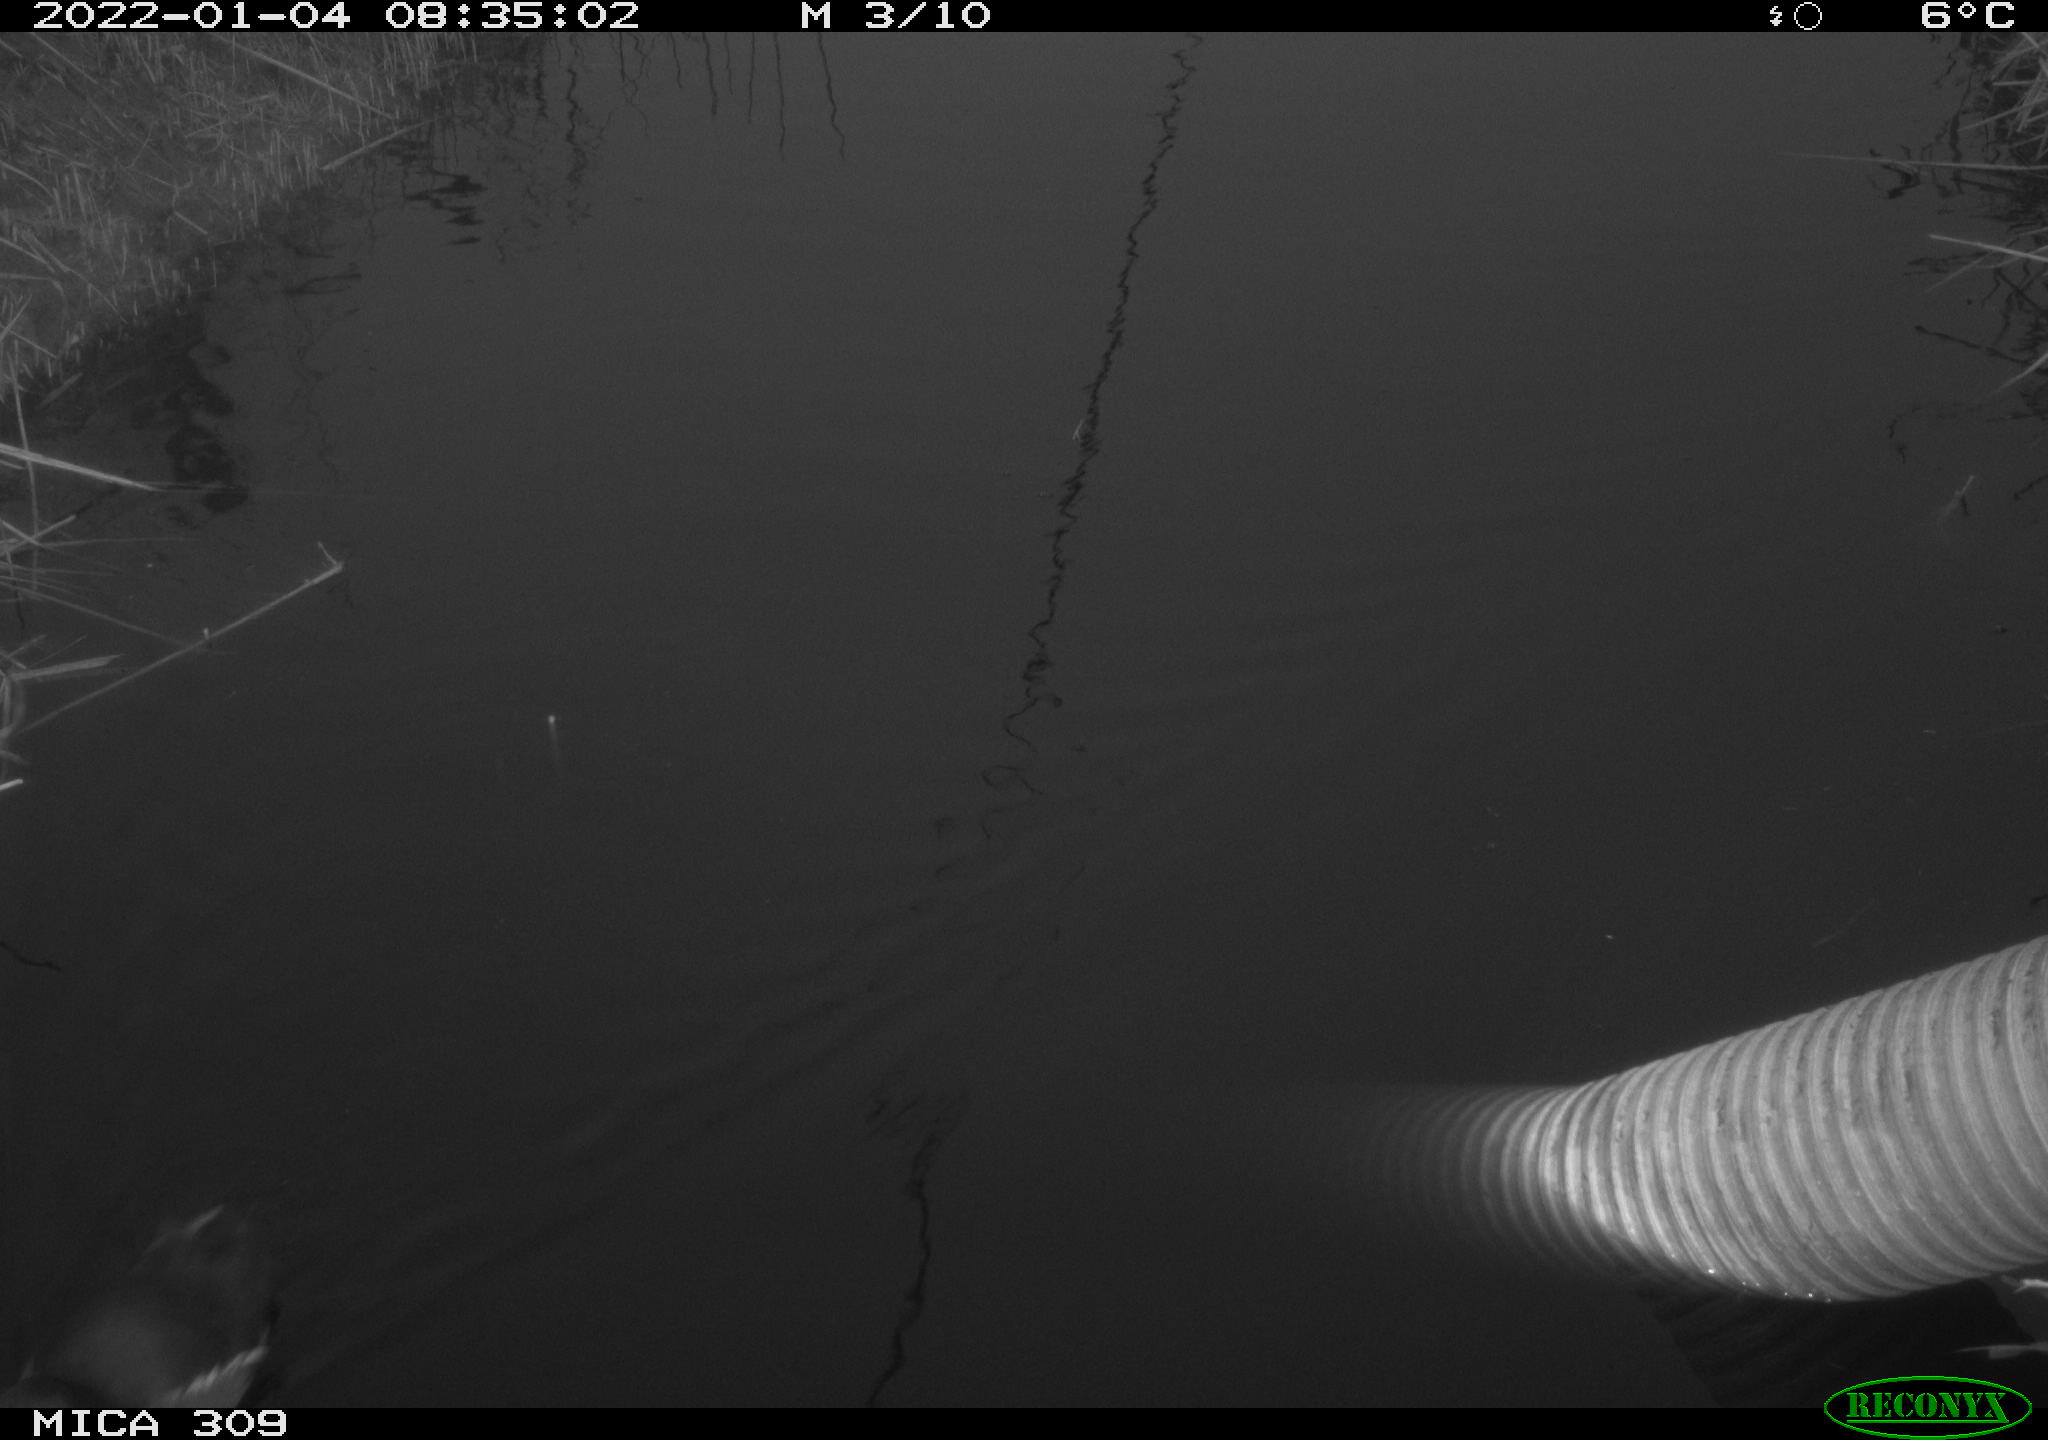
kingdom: Animalia
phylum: Chordata
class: Aves
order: Gruiformes
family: Rallidae
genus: Gallinula
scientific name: Gallinula chloropus
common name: Common moorhen
